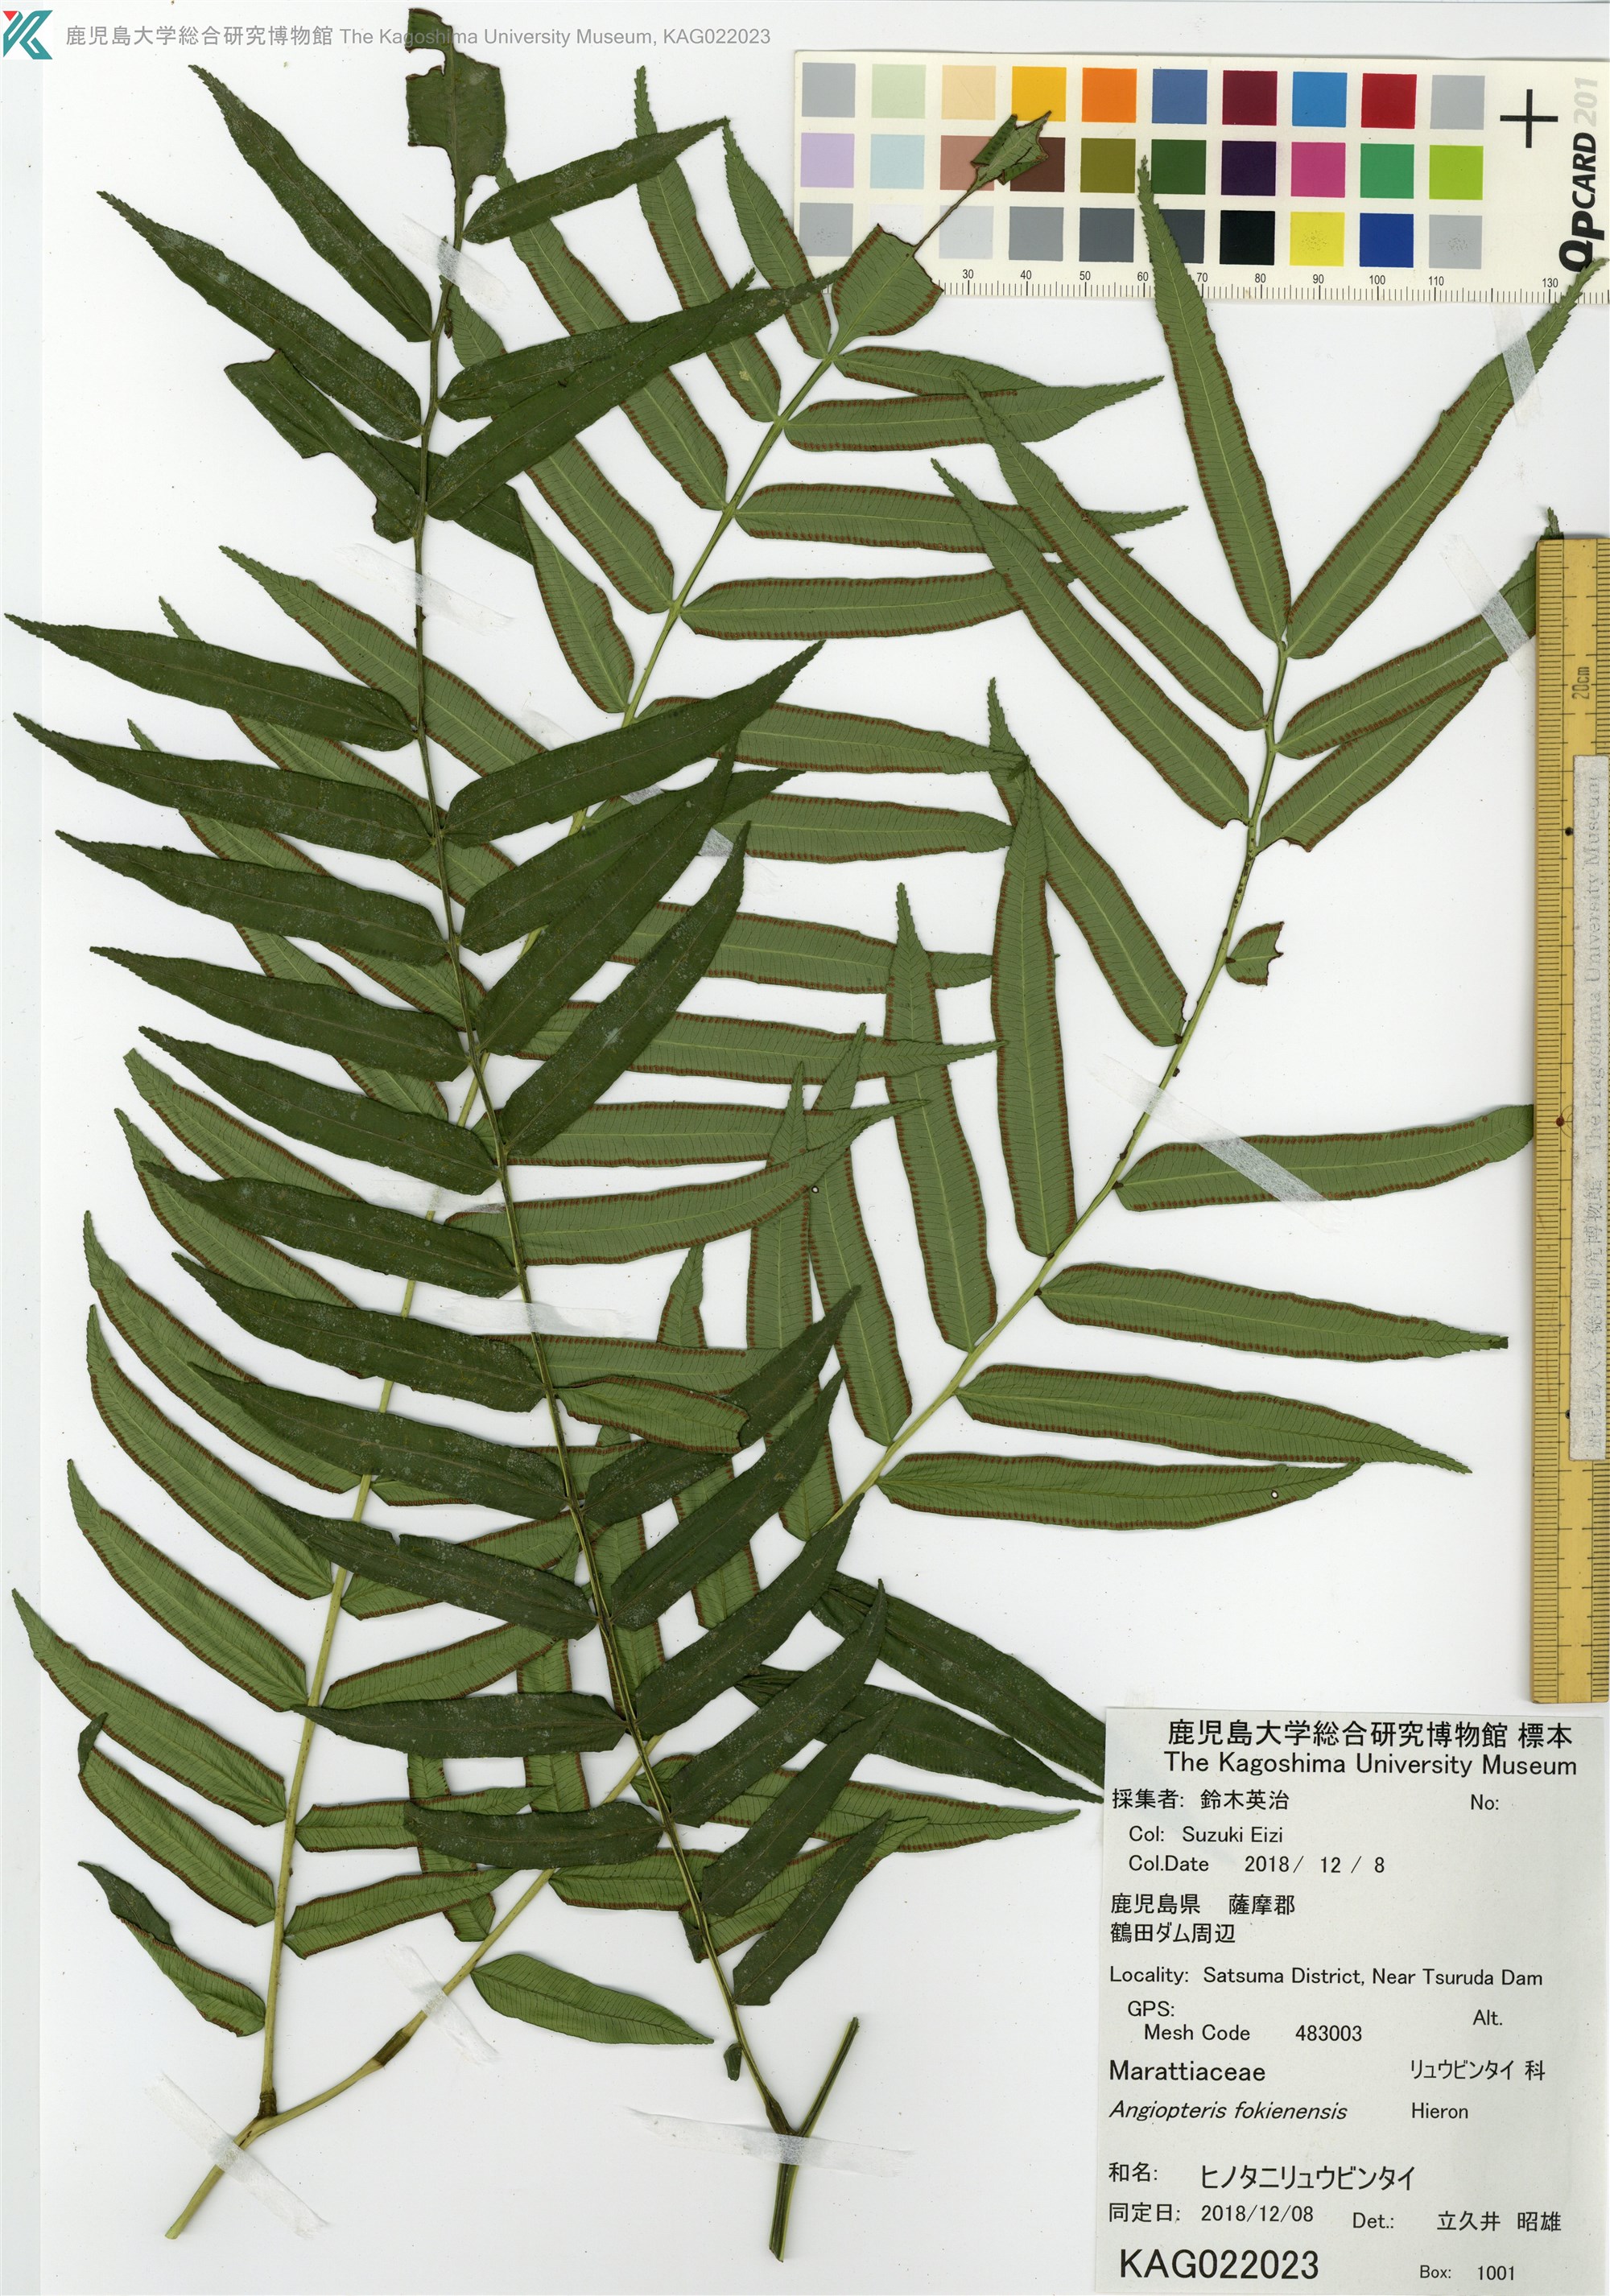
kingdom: Plantae
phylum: Tracheophyta
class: Polypodiopsida
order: Marattiales
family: Marattiaceae
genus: Angiopteris
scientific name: Angiopteris fokiensis
